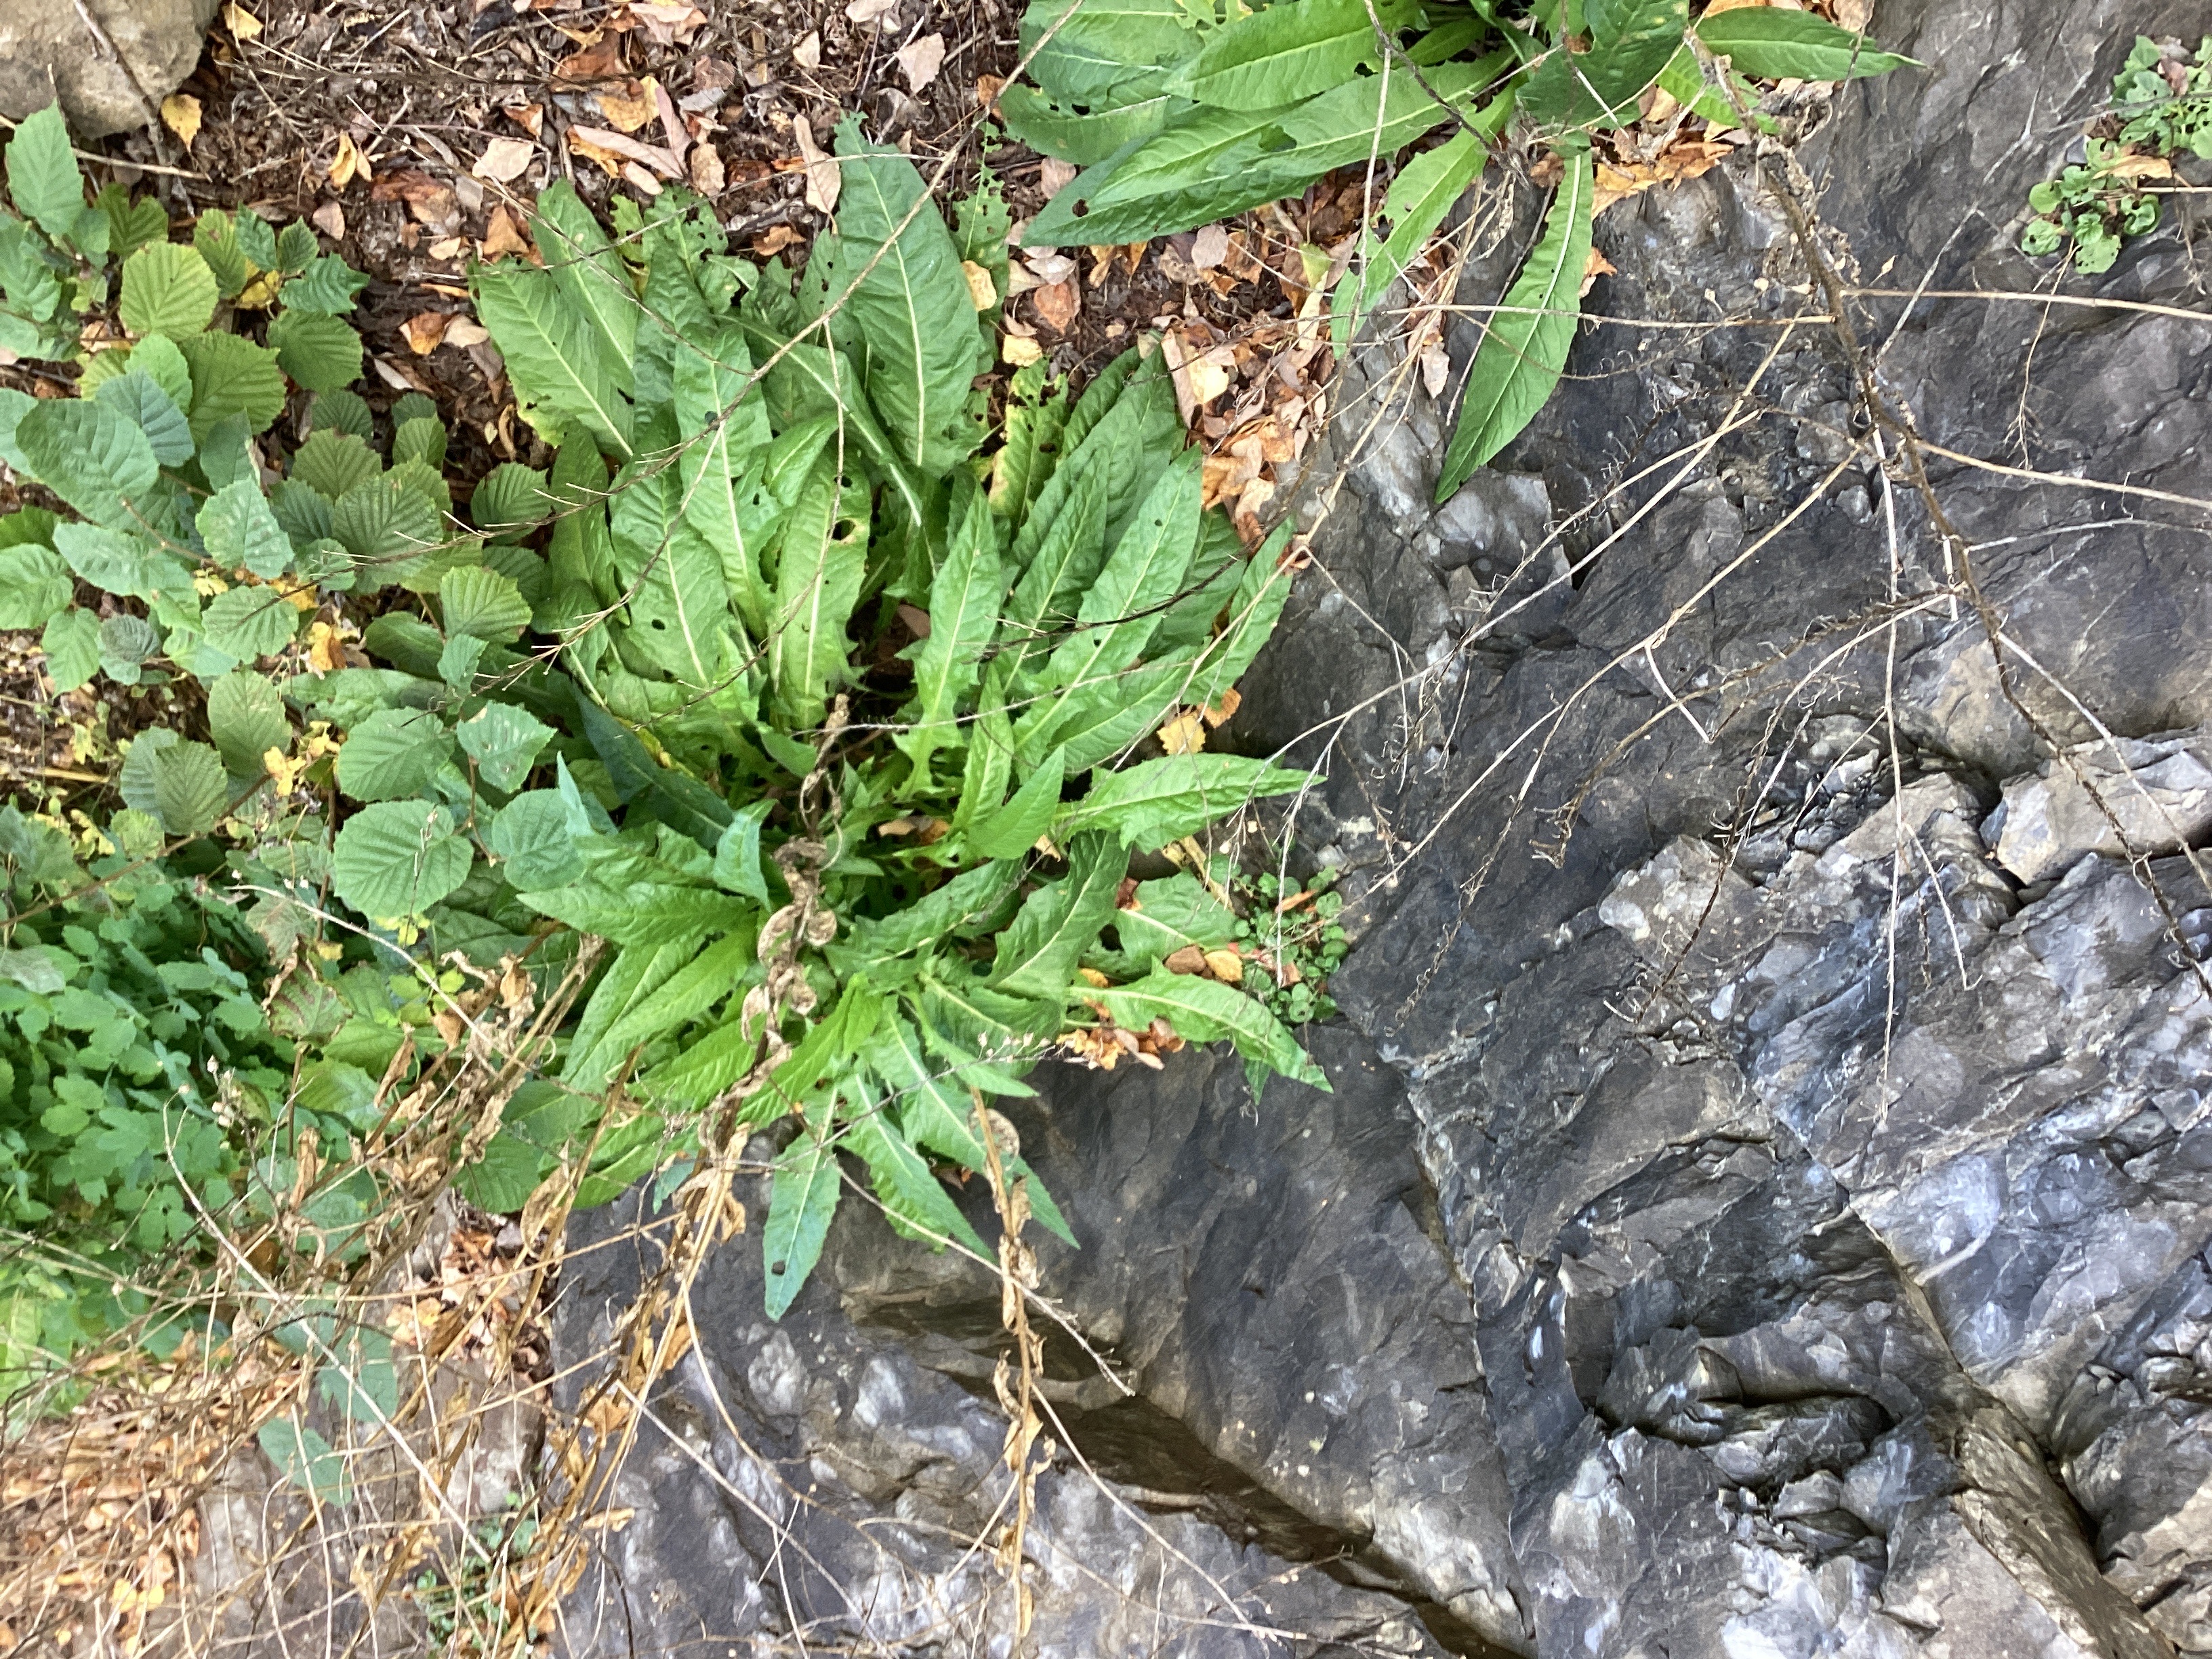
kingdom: Plantae
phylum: Tracheophyta
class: Magnoliopsida
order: Brassicales
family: Brassicaceae
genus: Bunias
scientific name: Bunias orientalis
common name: russekål
